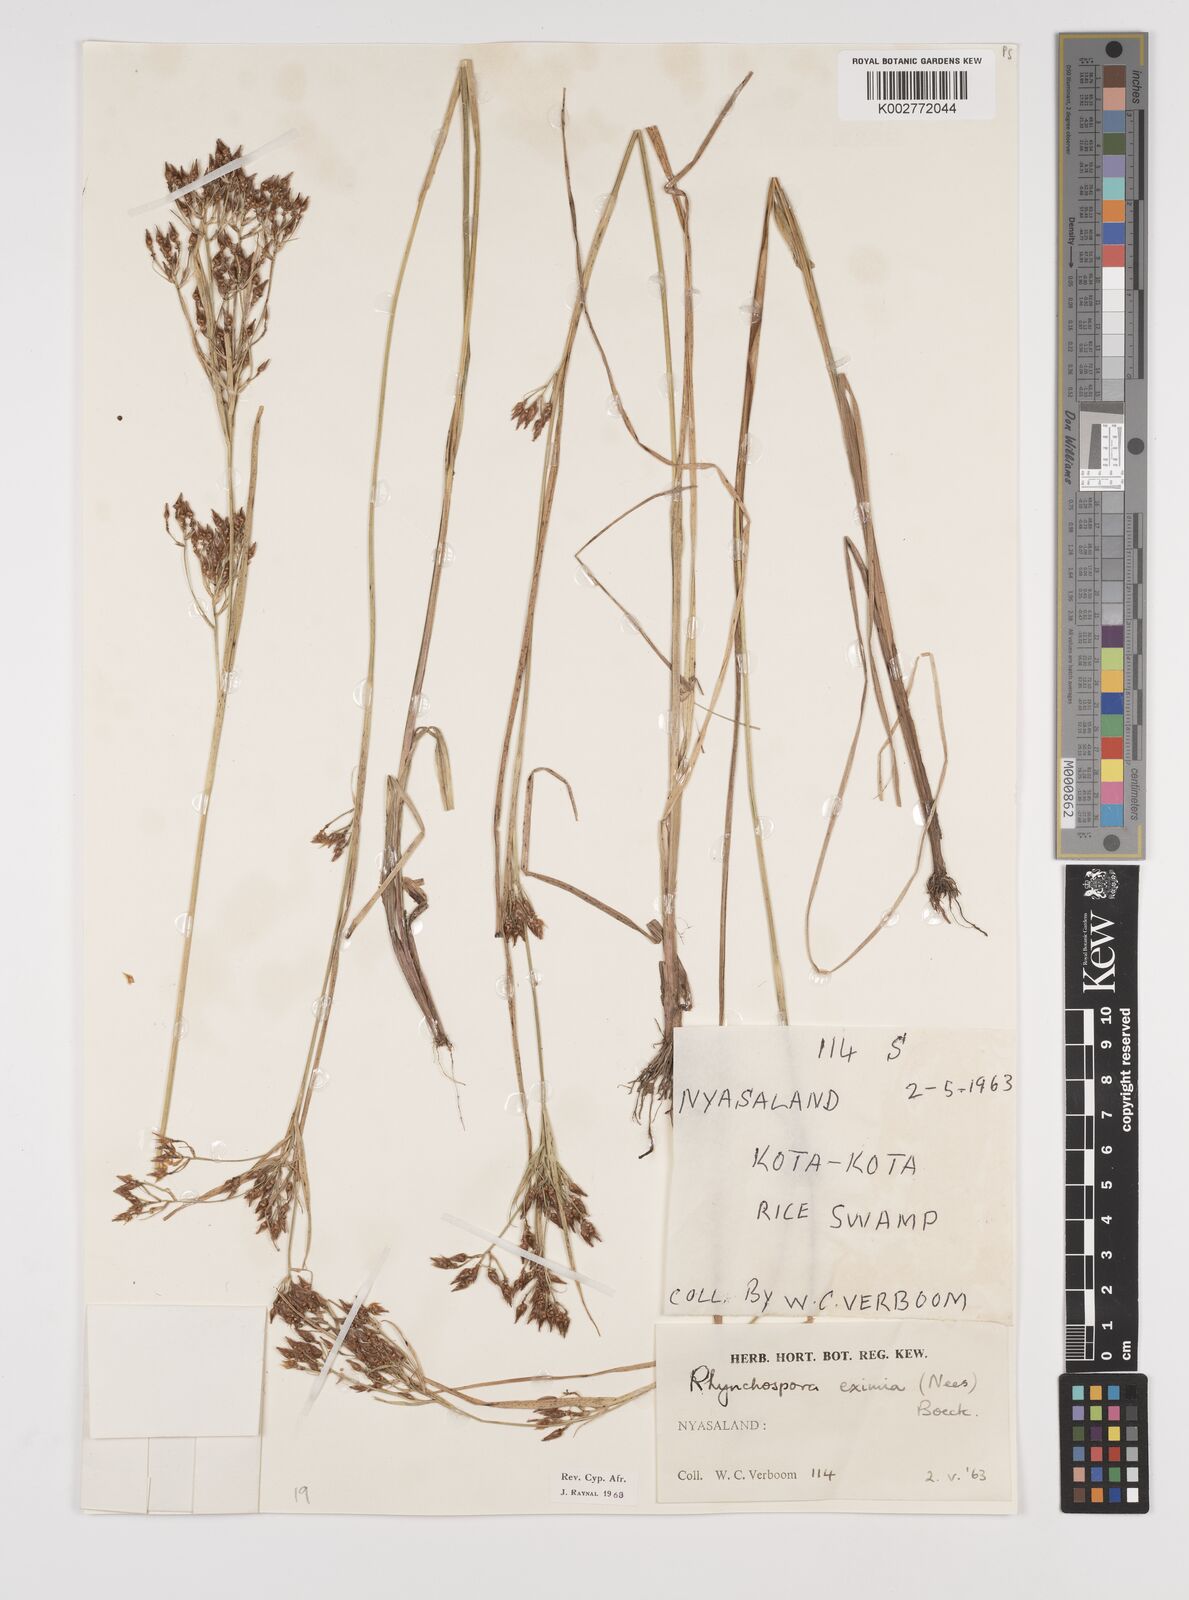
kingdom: Plantae
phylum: Tracheophyta
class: Liliopsida
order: Poales
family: Cyperaceae
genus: Rhynchospora
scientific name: Rhynchospora eximia
